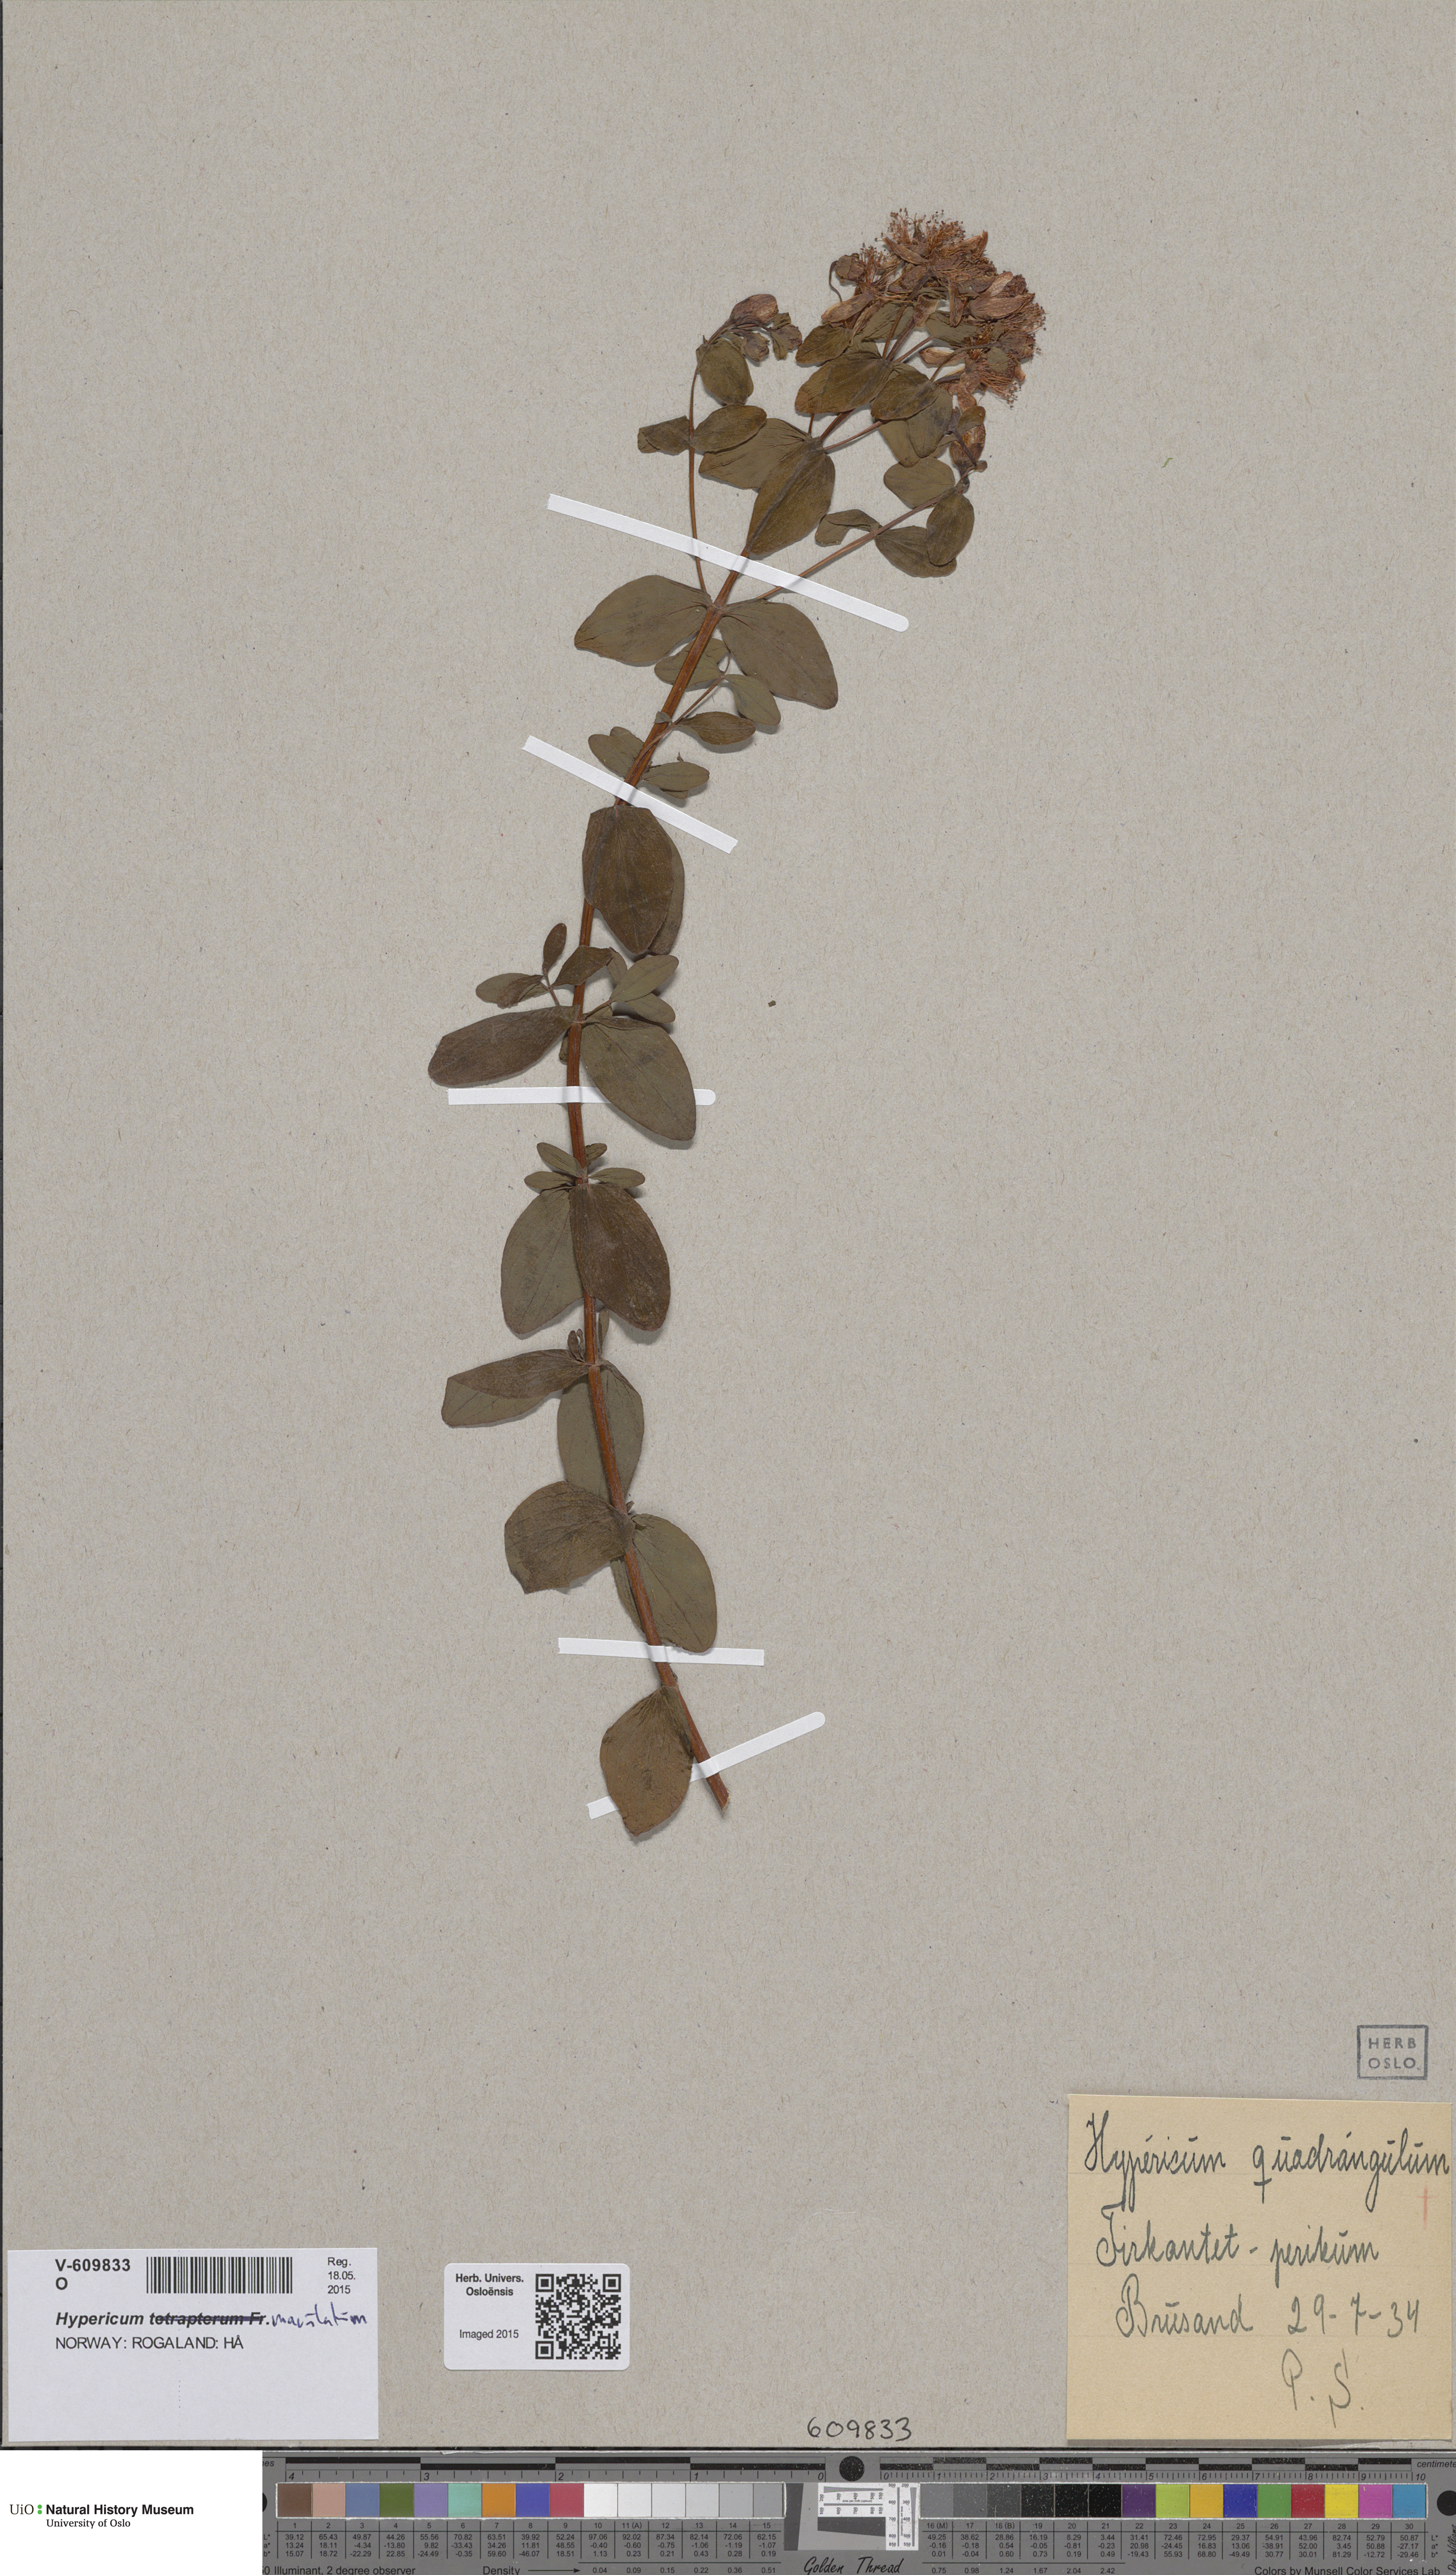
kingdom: Plantae
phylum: Tracheophyta
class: Magnoliopsida
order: Malpighiales
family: Hypericaceae
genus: Hypericum
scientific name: Hypericum maculatum
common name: Imperforate st. john's-wort
